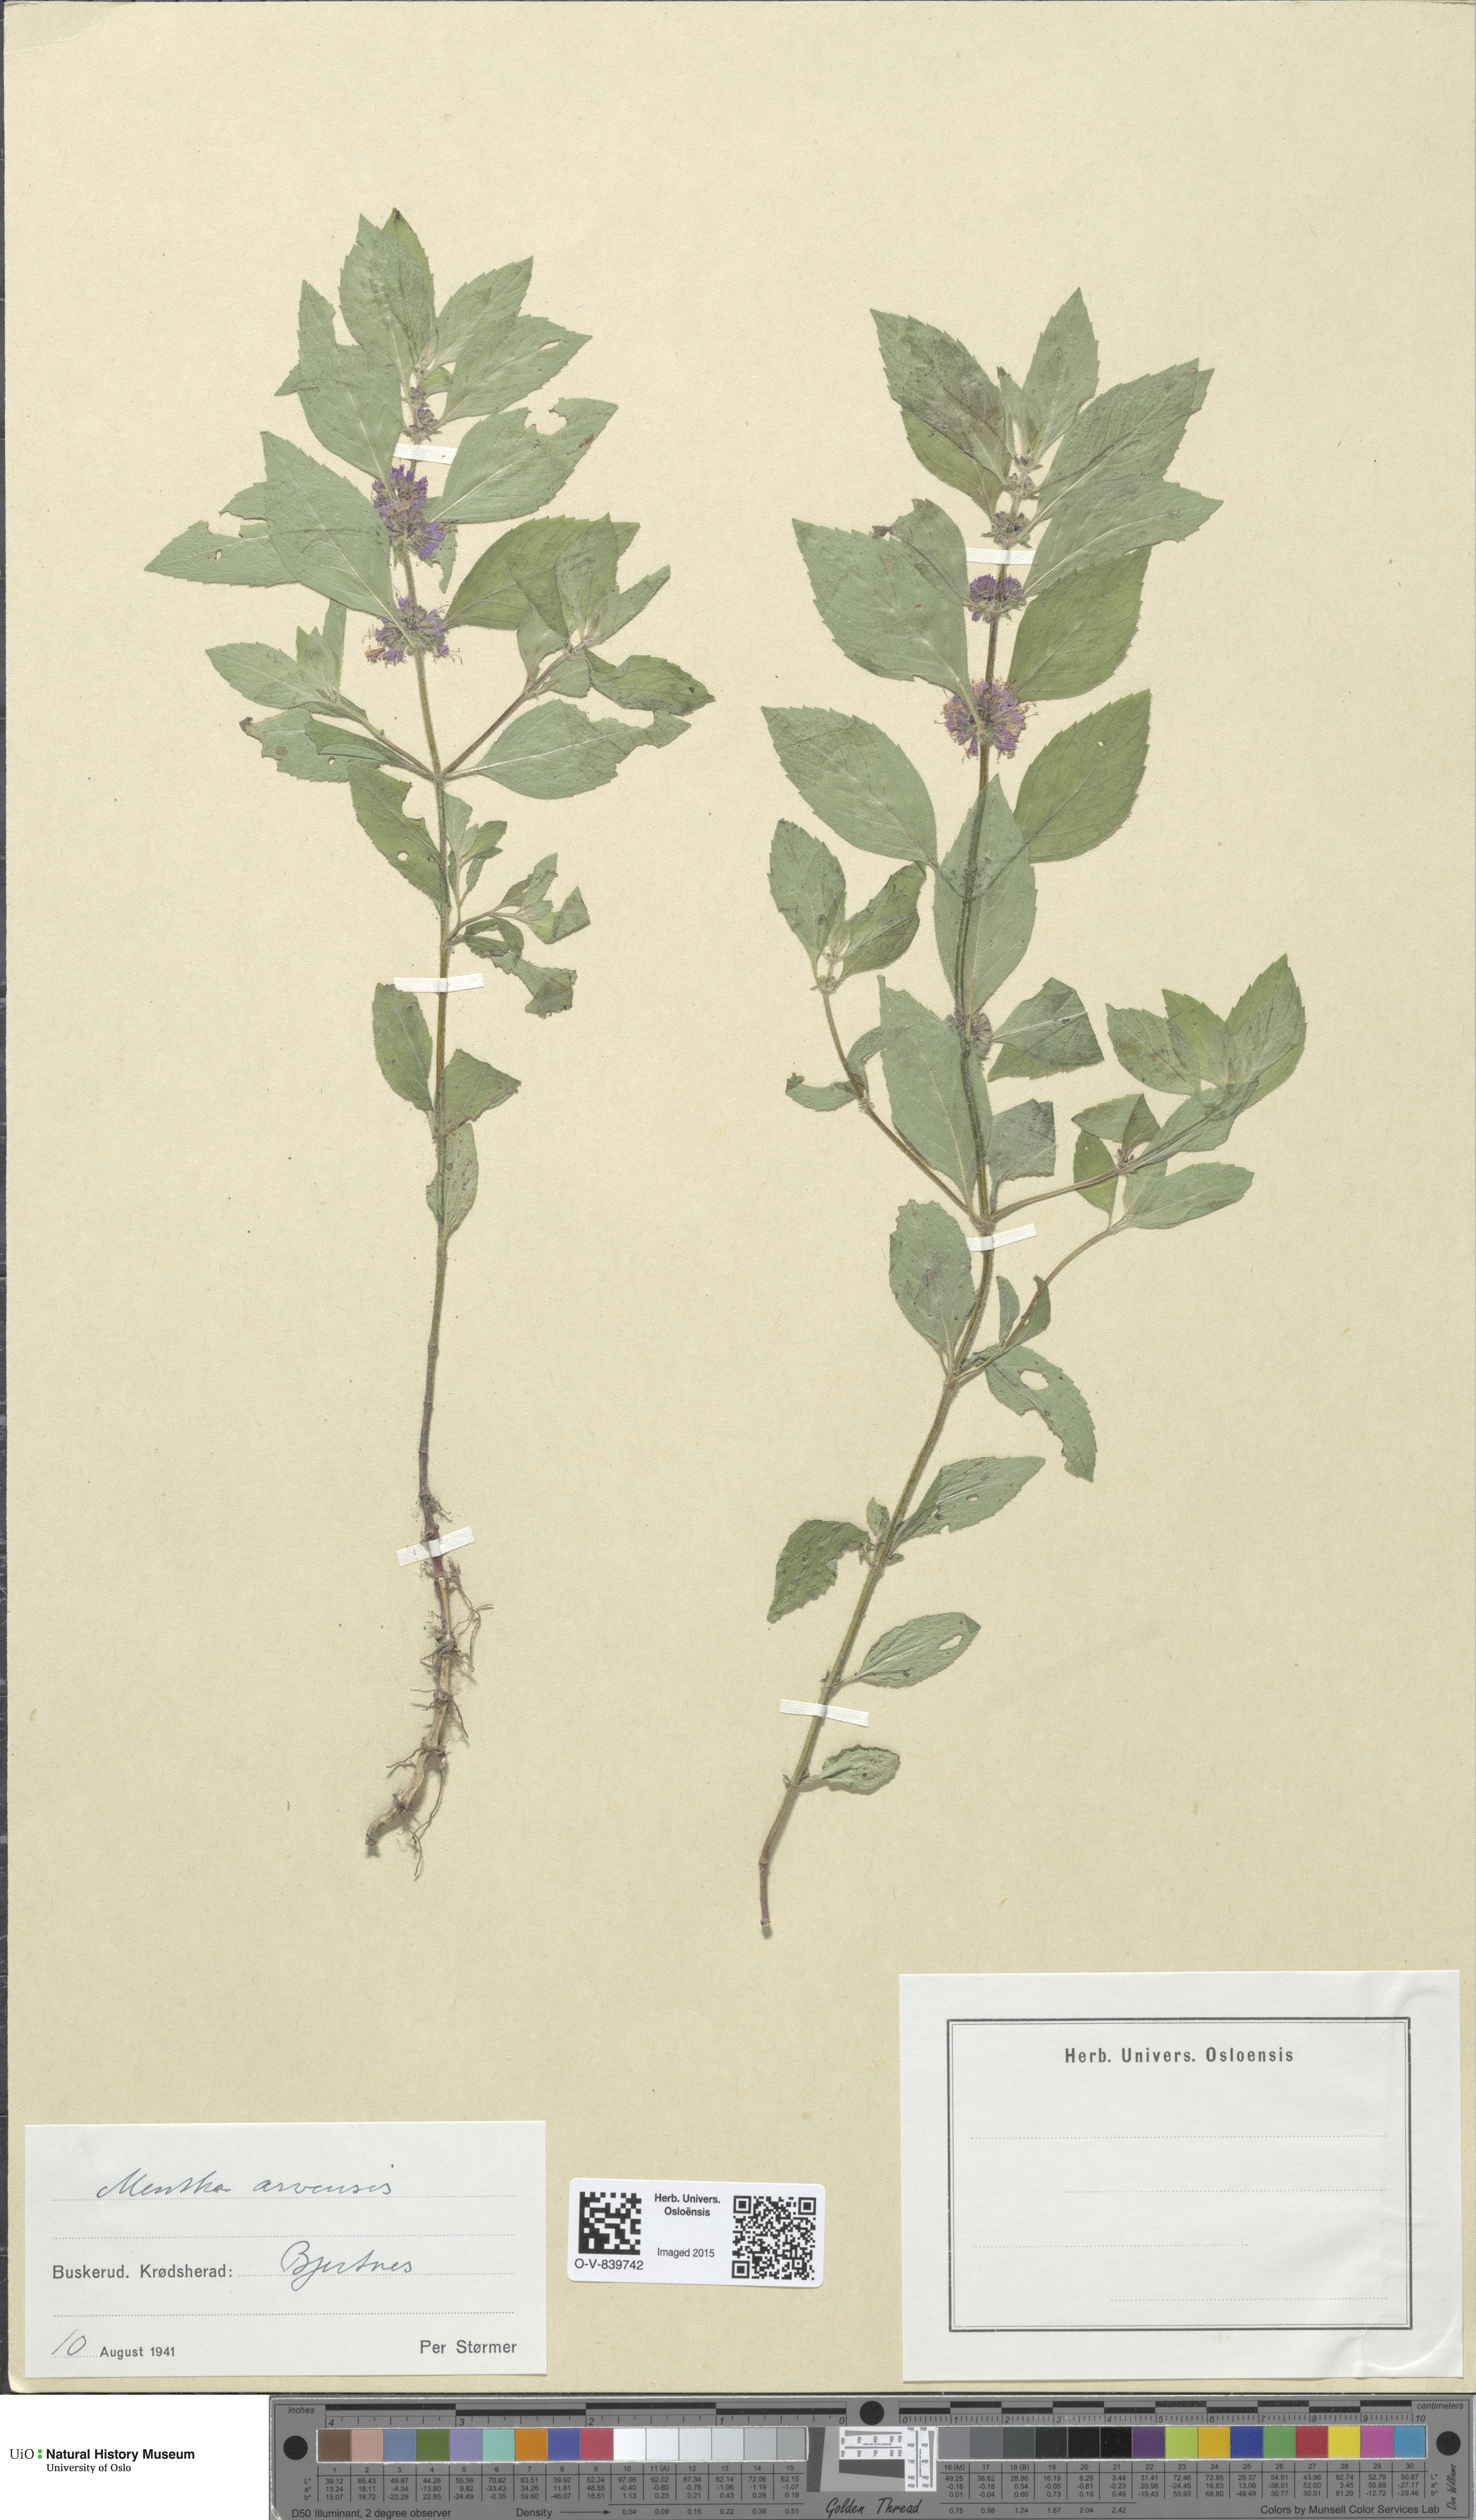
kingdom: Plantae
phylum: Tracheophyta
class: Magnoliopsida
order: Lamiales
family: Lamiaceae
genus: Mentha
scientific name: Mentha arvensis
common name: Corn mint
